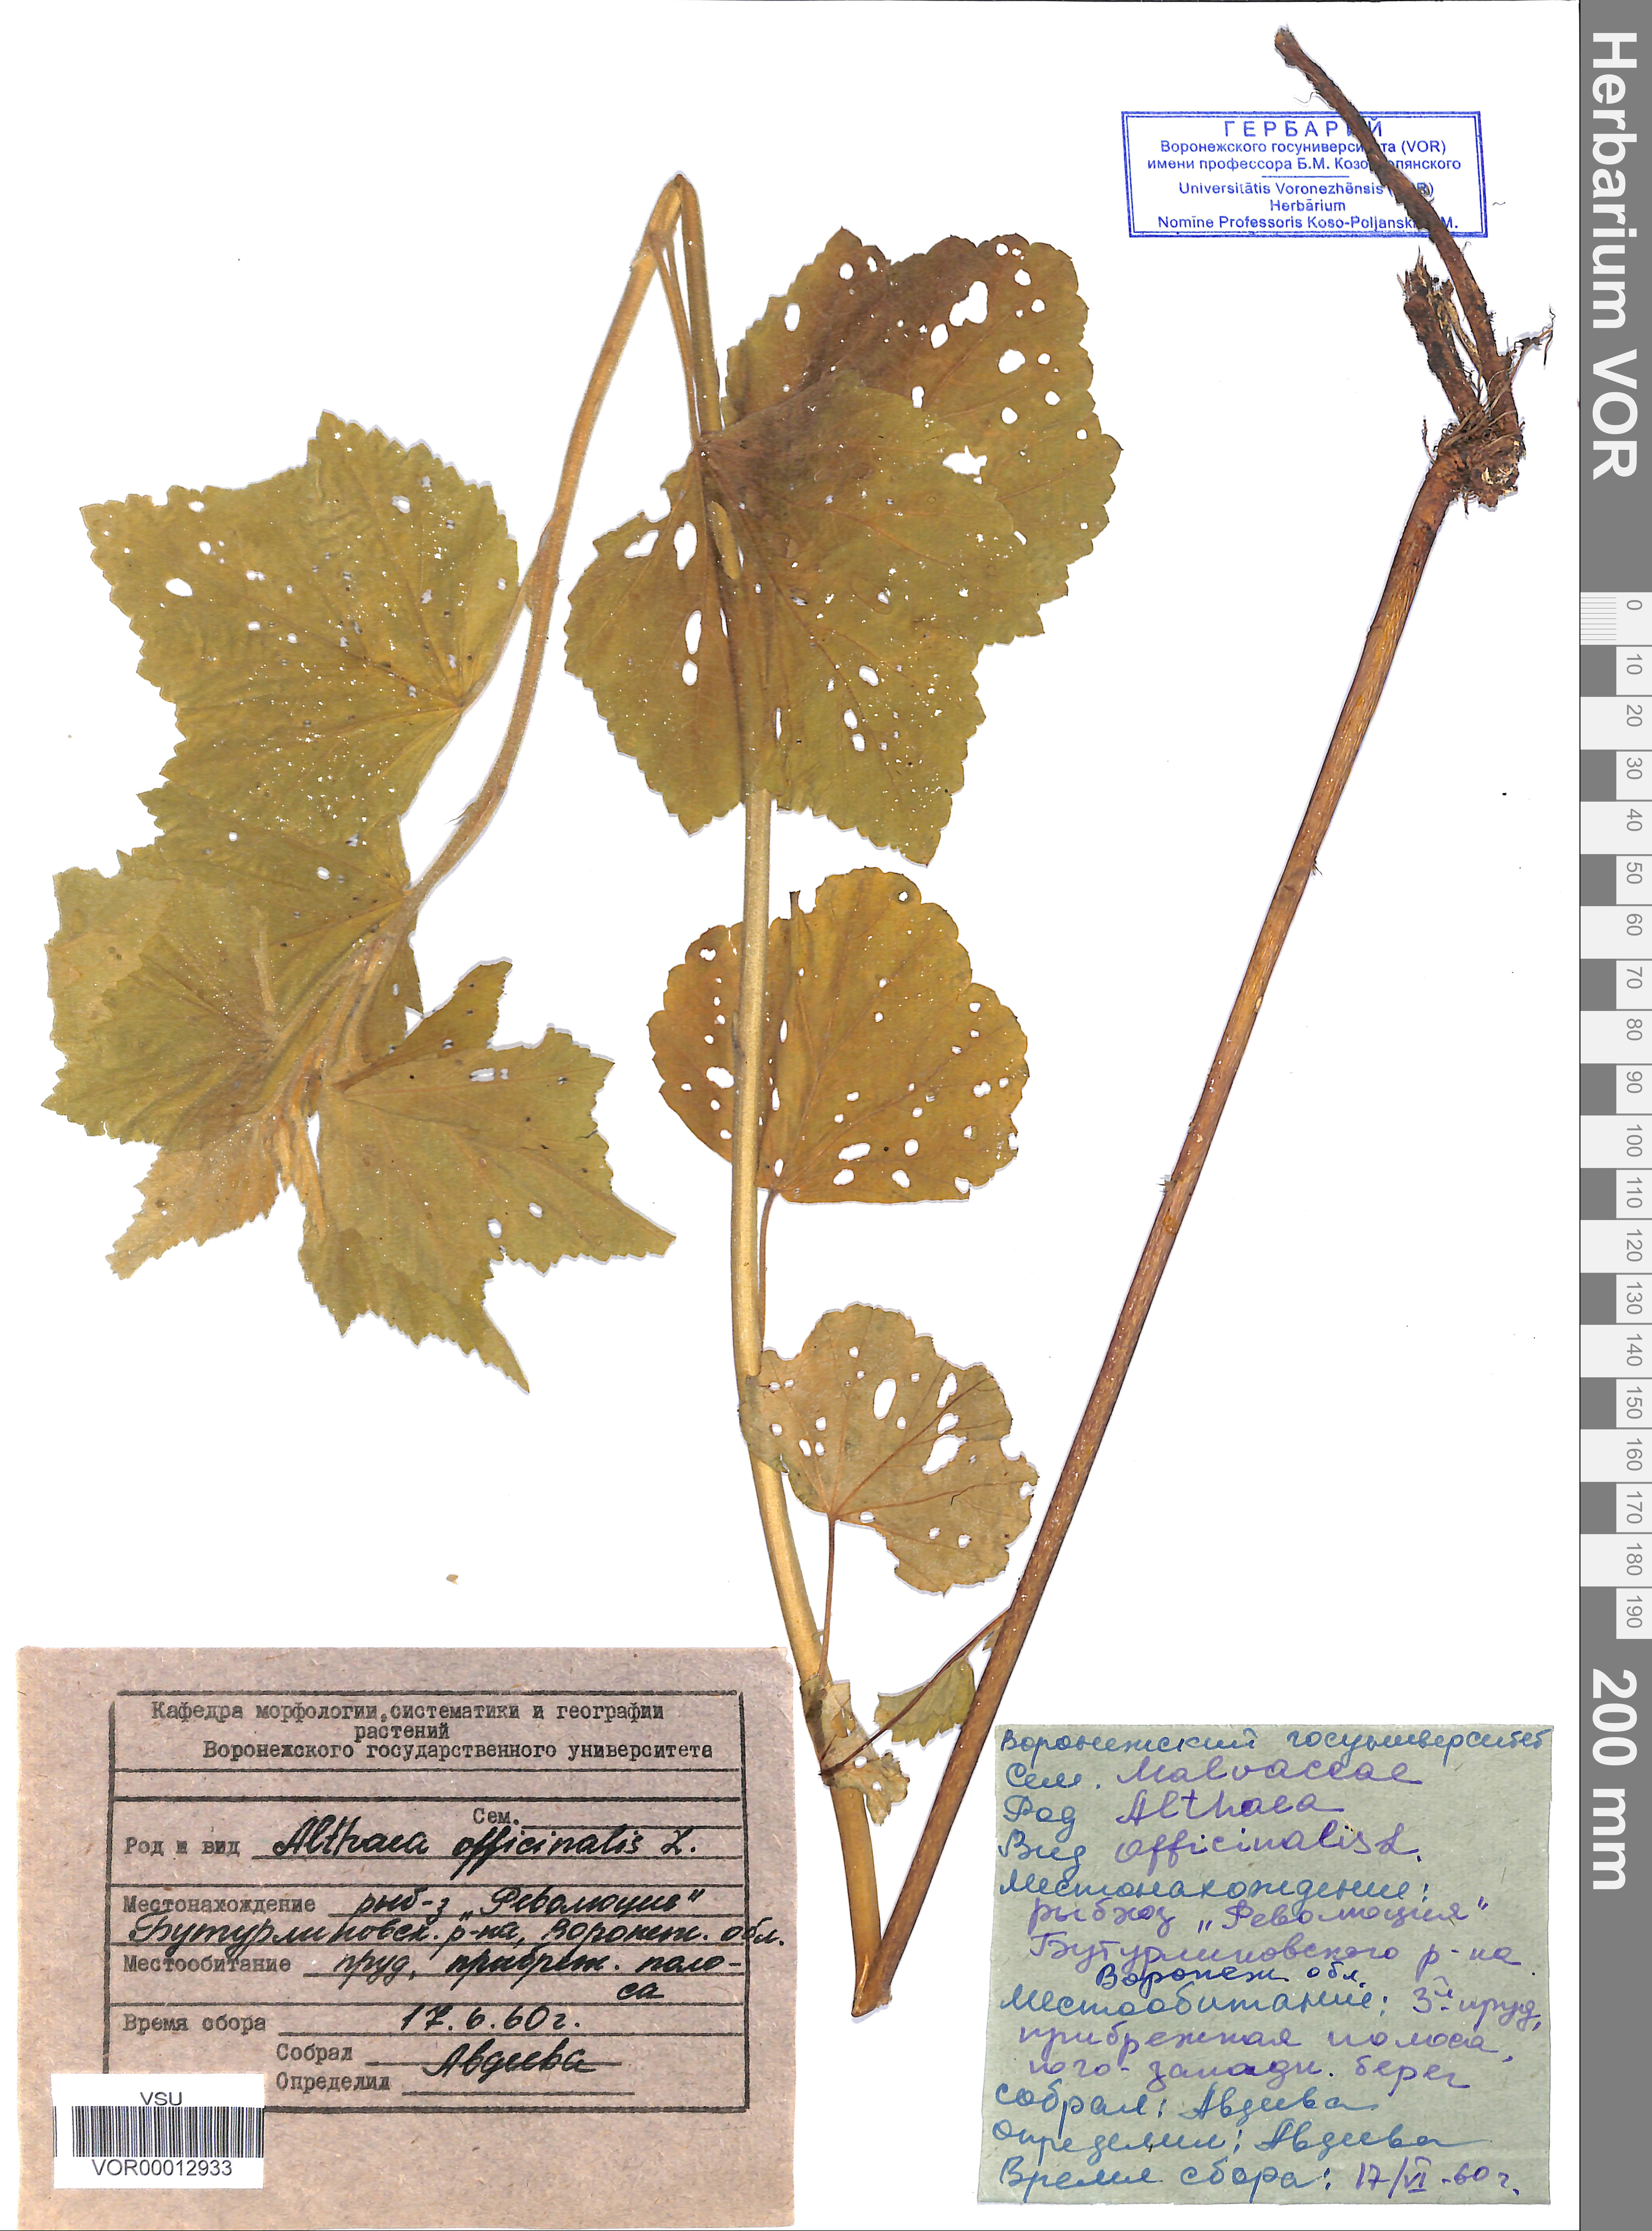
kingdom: Plantae
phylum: Tracheophyta
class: Magnoliopsida
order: Malvales
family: Malvaceae
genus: Althaea
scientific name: Althaea officinalis
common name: Marsh-mallow
